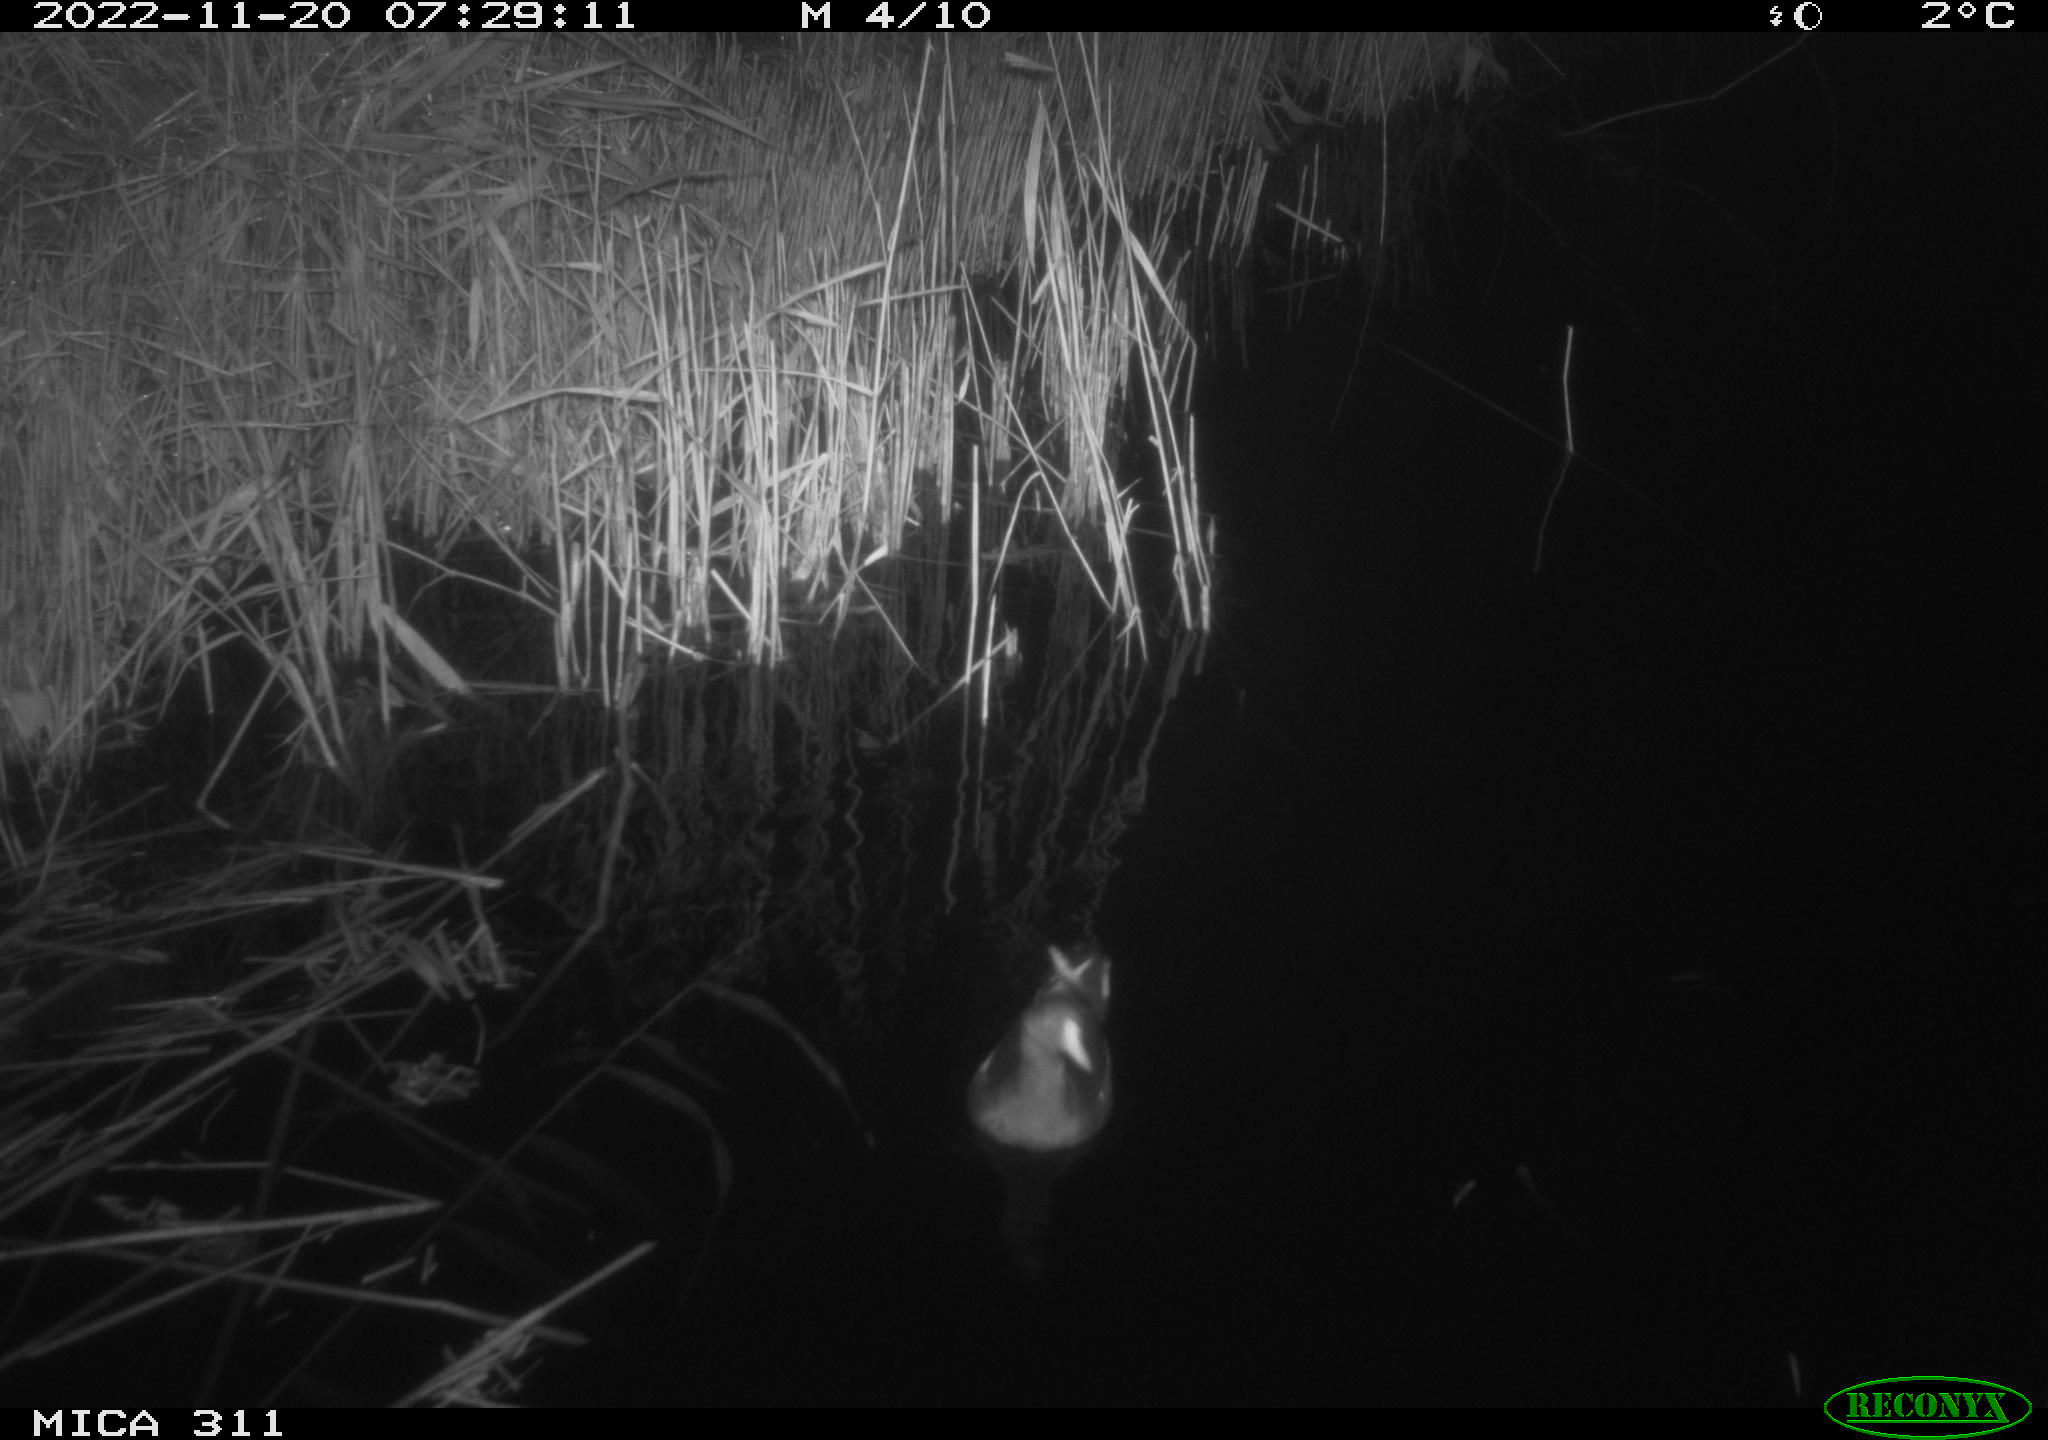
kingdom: Animalia
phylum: Chordata
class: Aves
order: Gruiformes
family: Rallidae
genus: Fulica
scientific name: Fulica atra
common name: Eurasian coot
